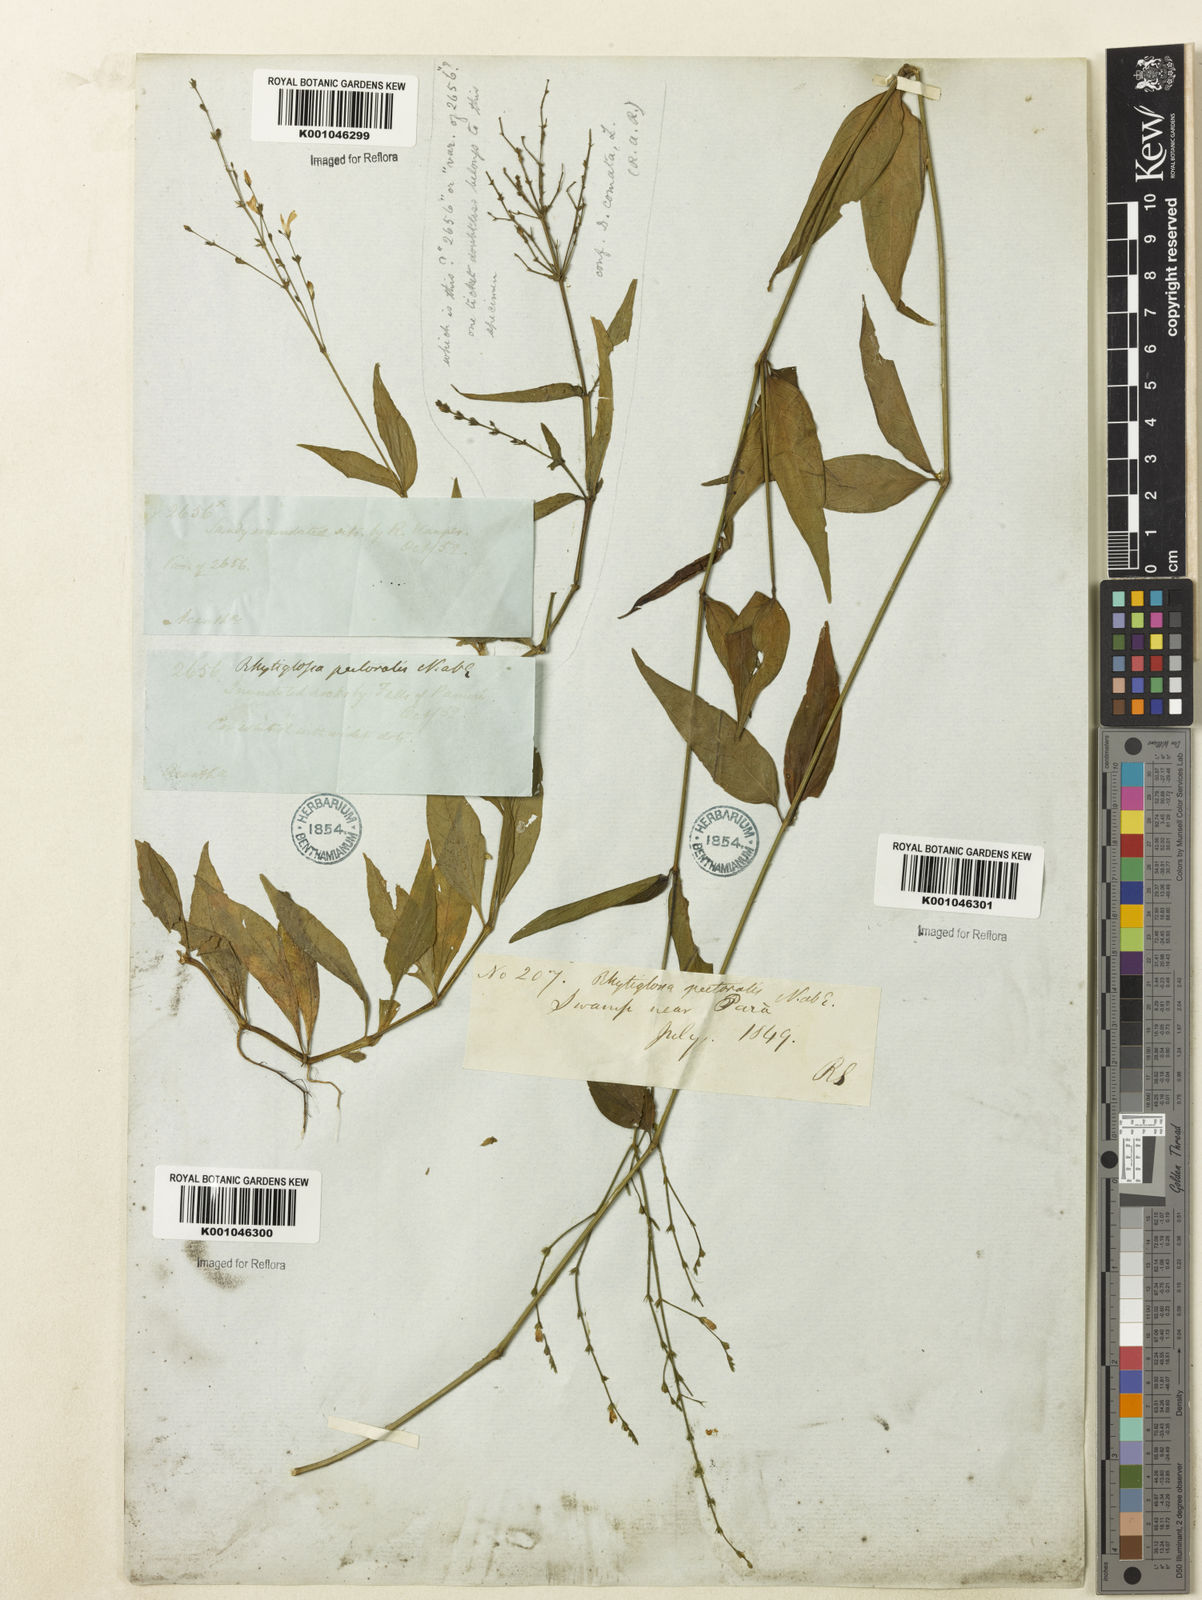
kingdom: Plantae
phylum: Tracheophyta
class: Magnoliopsida
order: Lamiales
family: Acanthaceae
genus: Dianthera
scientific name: Dianthera pectoralis
